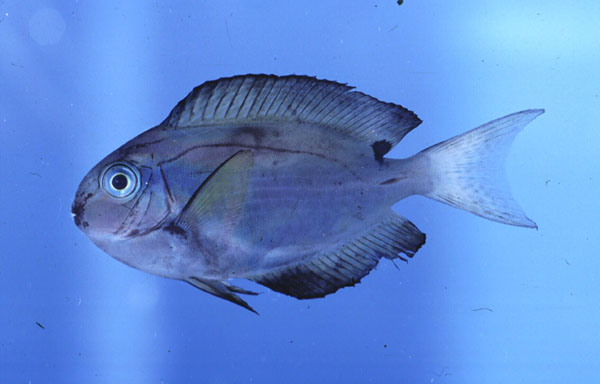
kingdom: Animalia
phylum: Chordata
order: Perciformes
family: Acanthuridae
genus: Acanthurus
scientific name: Acanthurus thompsoni
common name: Chocolate surgeonfish
